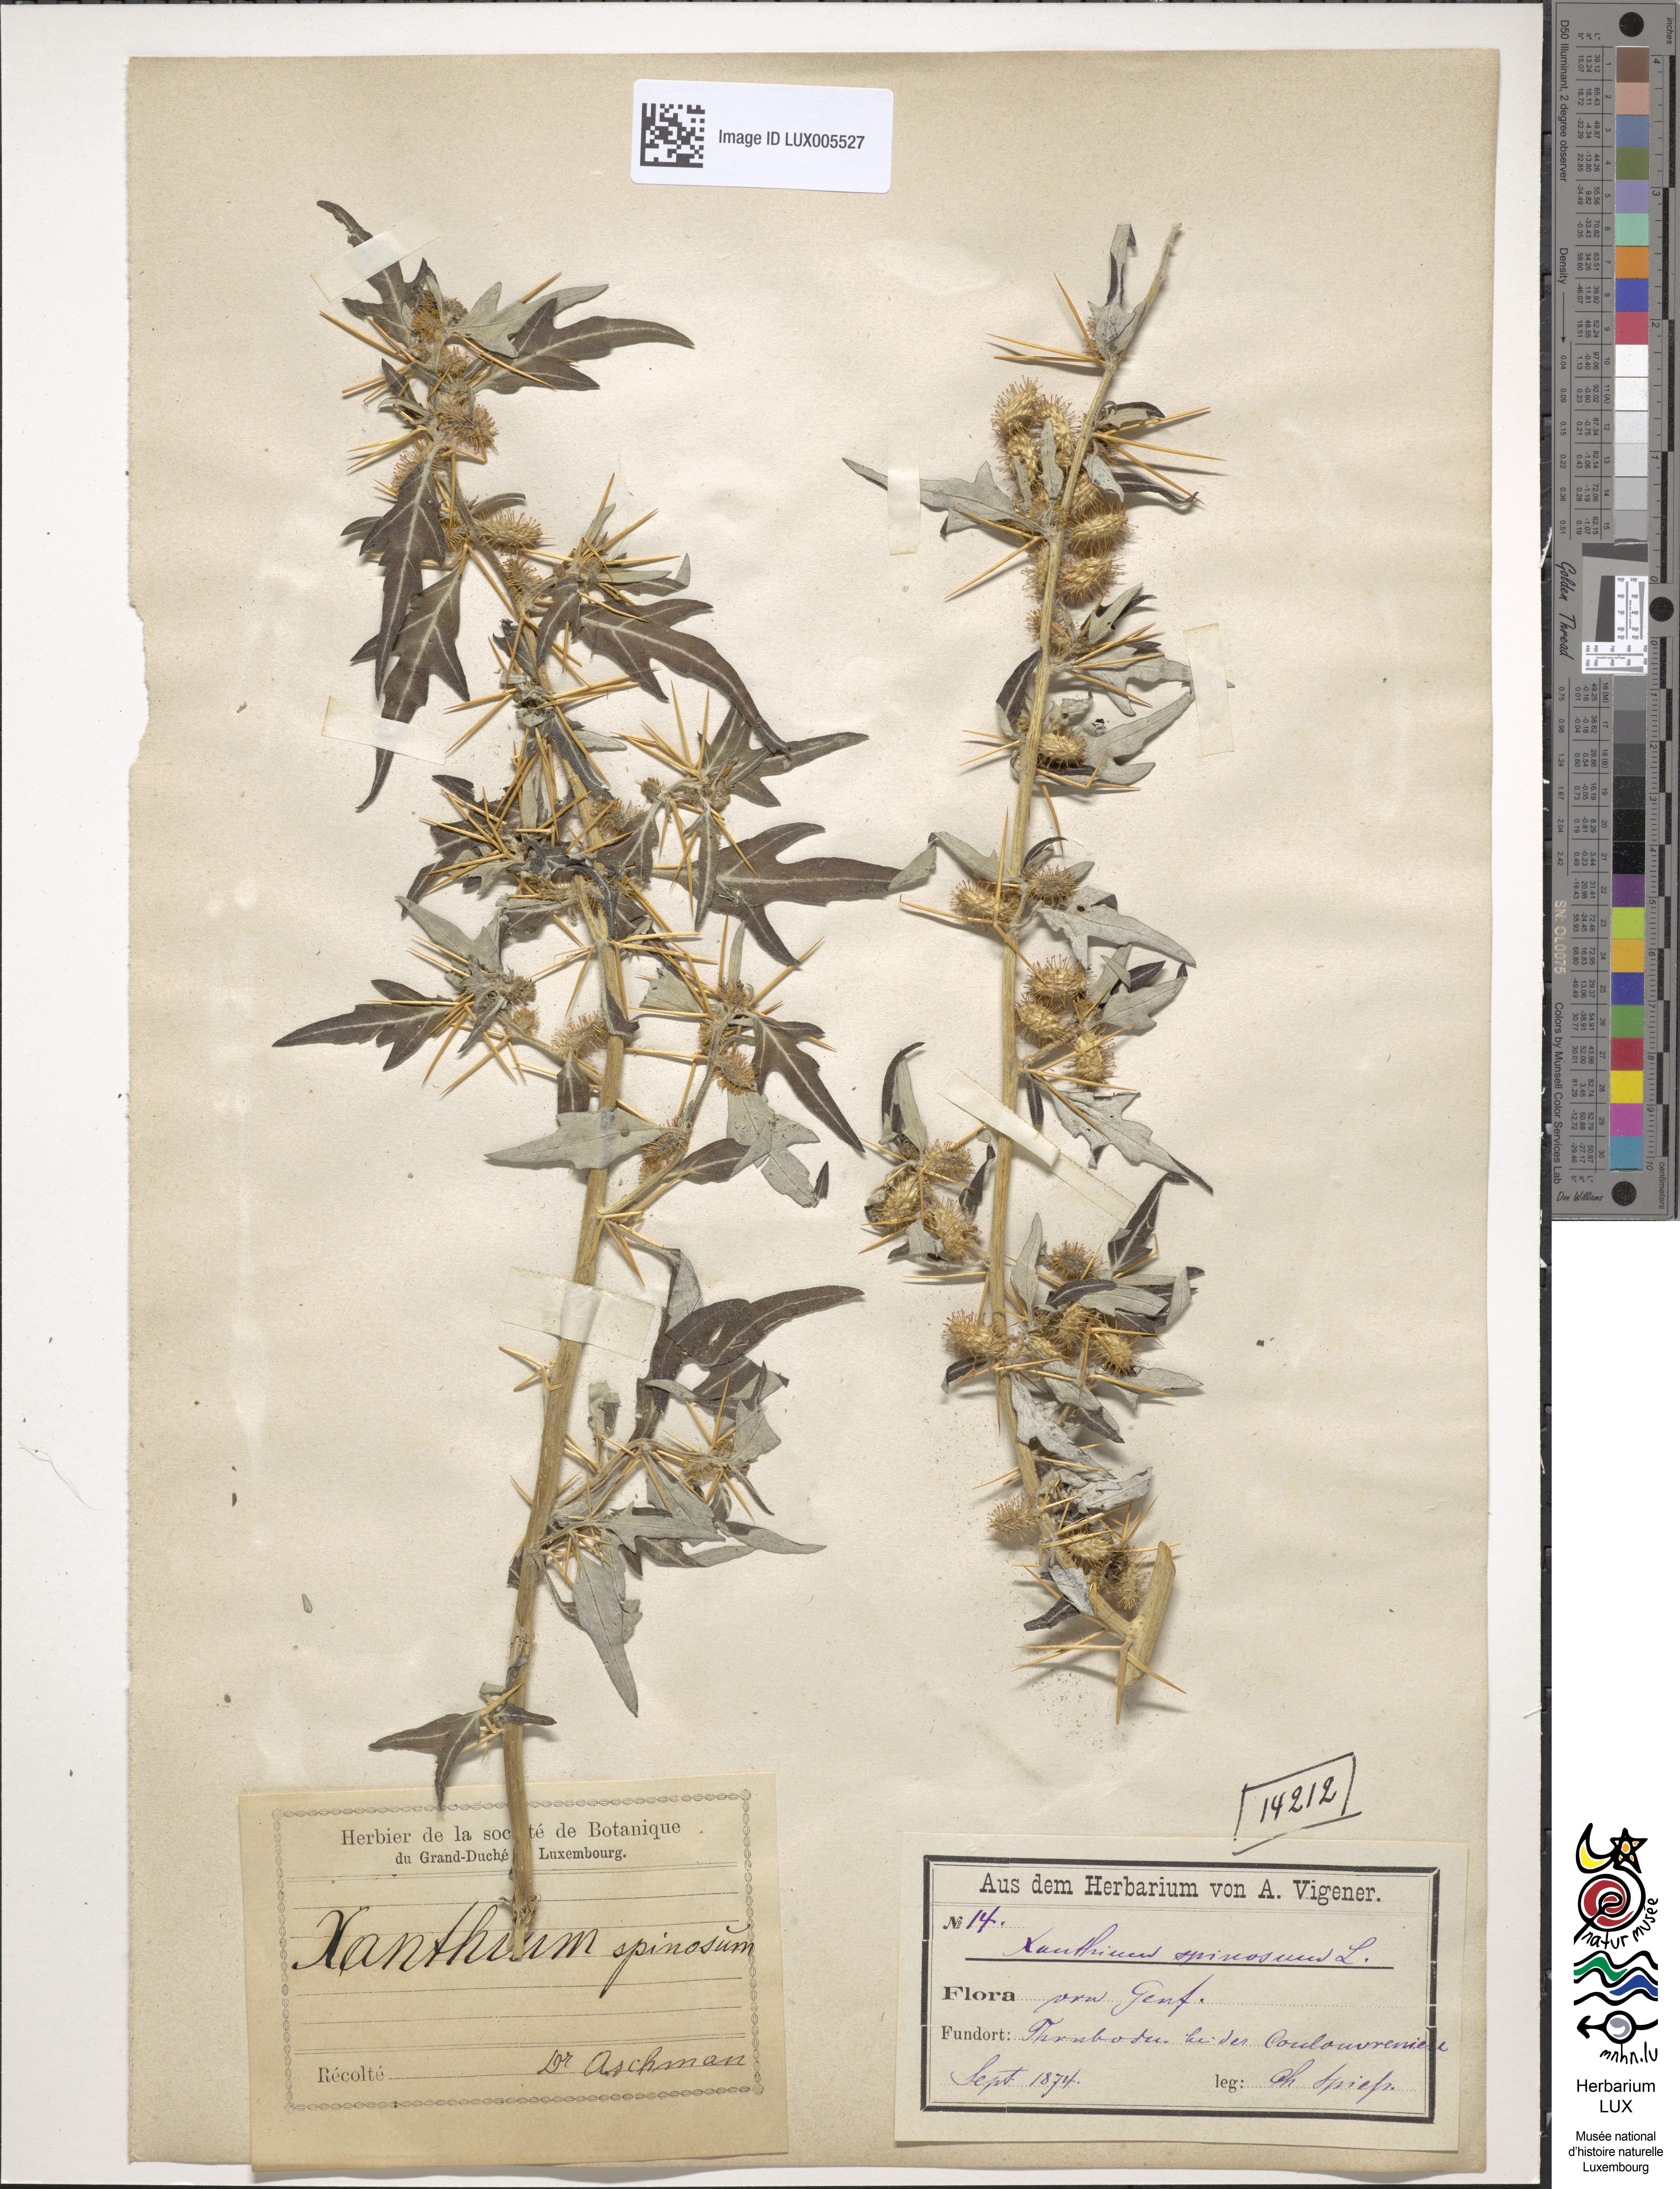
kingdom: Plantae
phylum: Tracheophyta
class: Magnoliopsida
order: Asterales
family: Asteraceae
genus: Xanthium
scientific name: Xanthium spinosum
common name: Spiny cocklebur
